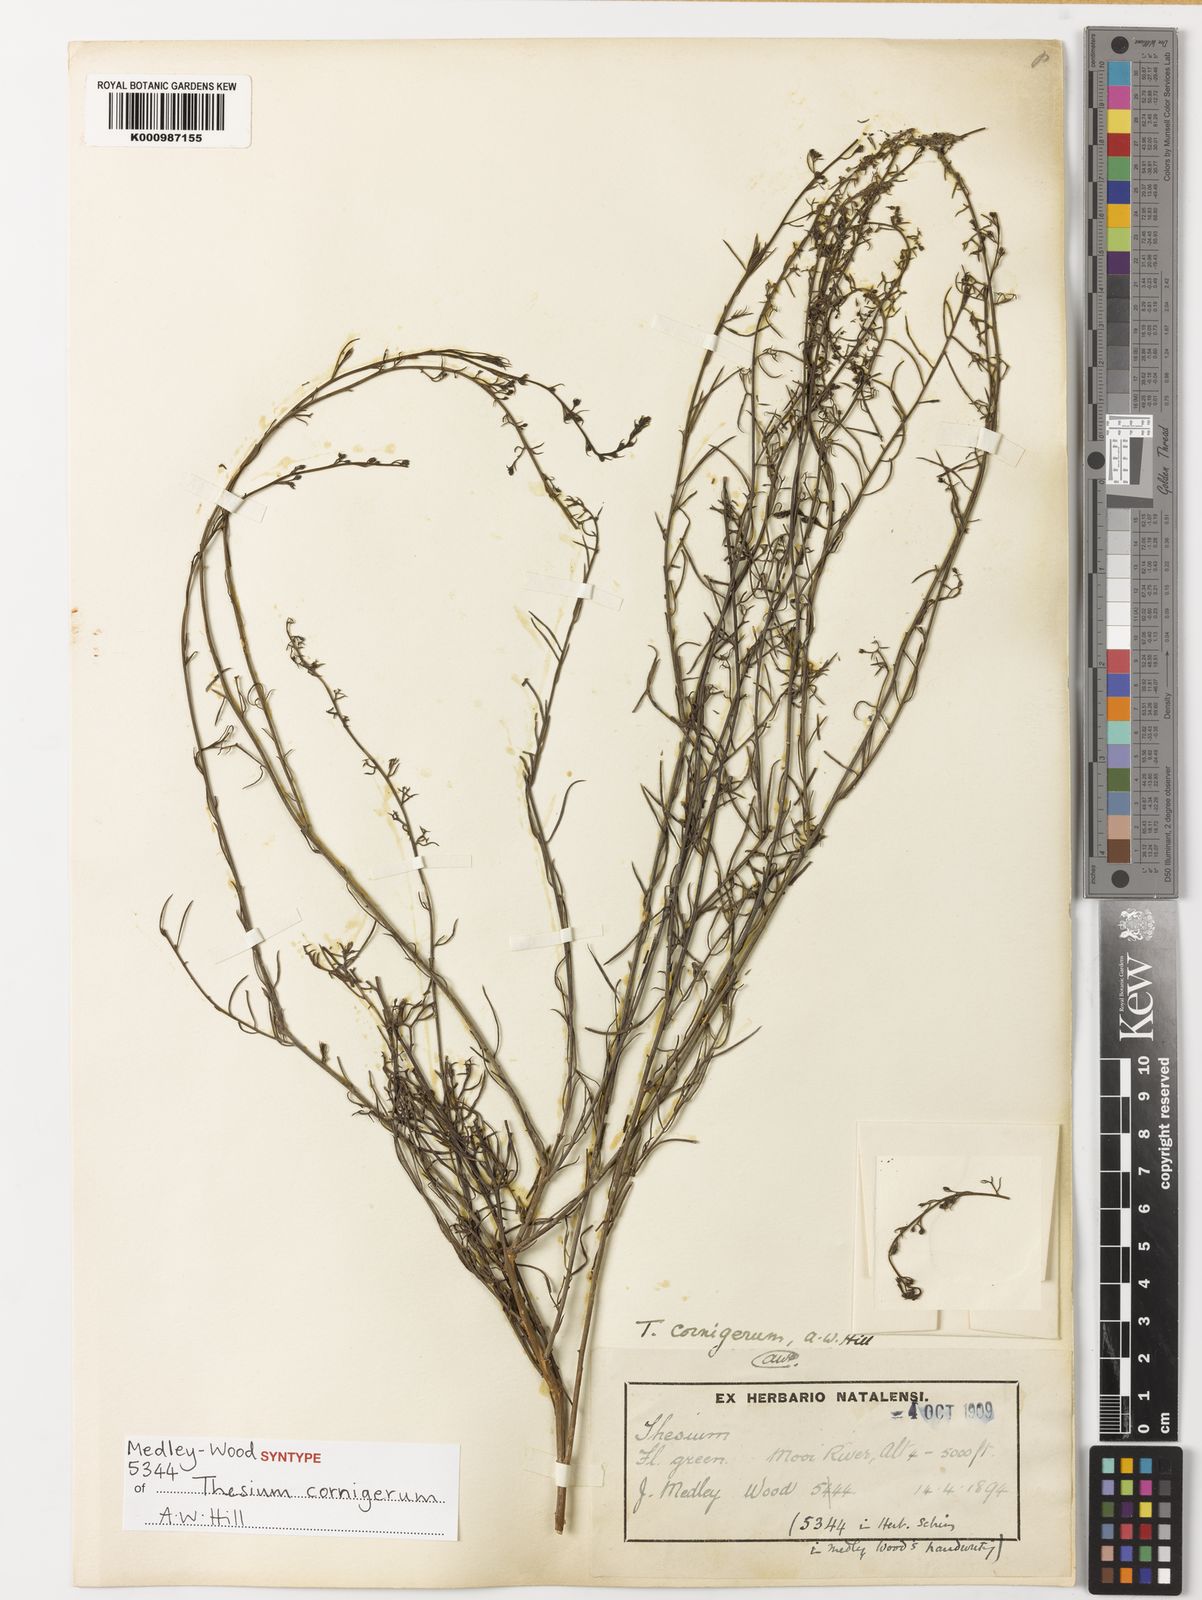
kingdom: Plantae
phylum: Tracheophyta
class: Magnoliopsida
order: Santalales
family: Thesiaceae
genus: Thesium
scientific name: Thesium cornigerum
